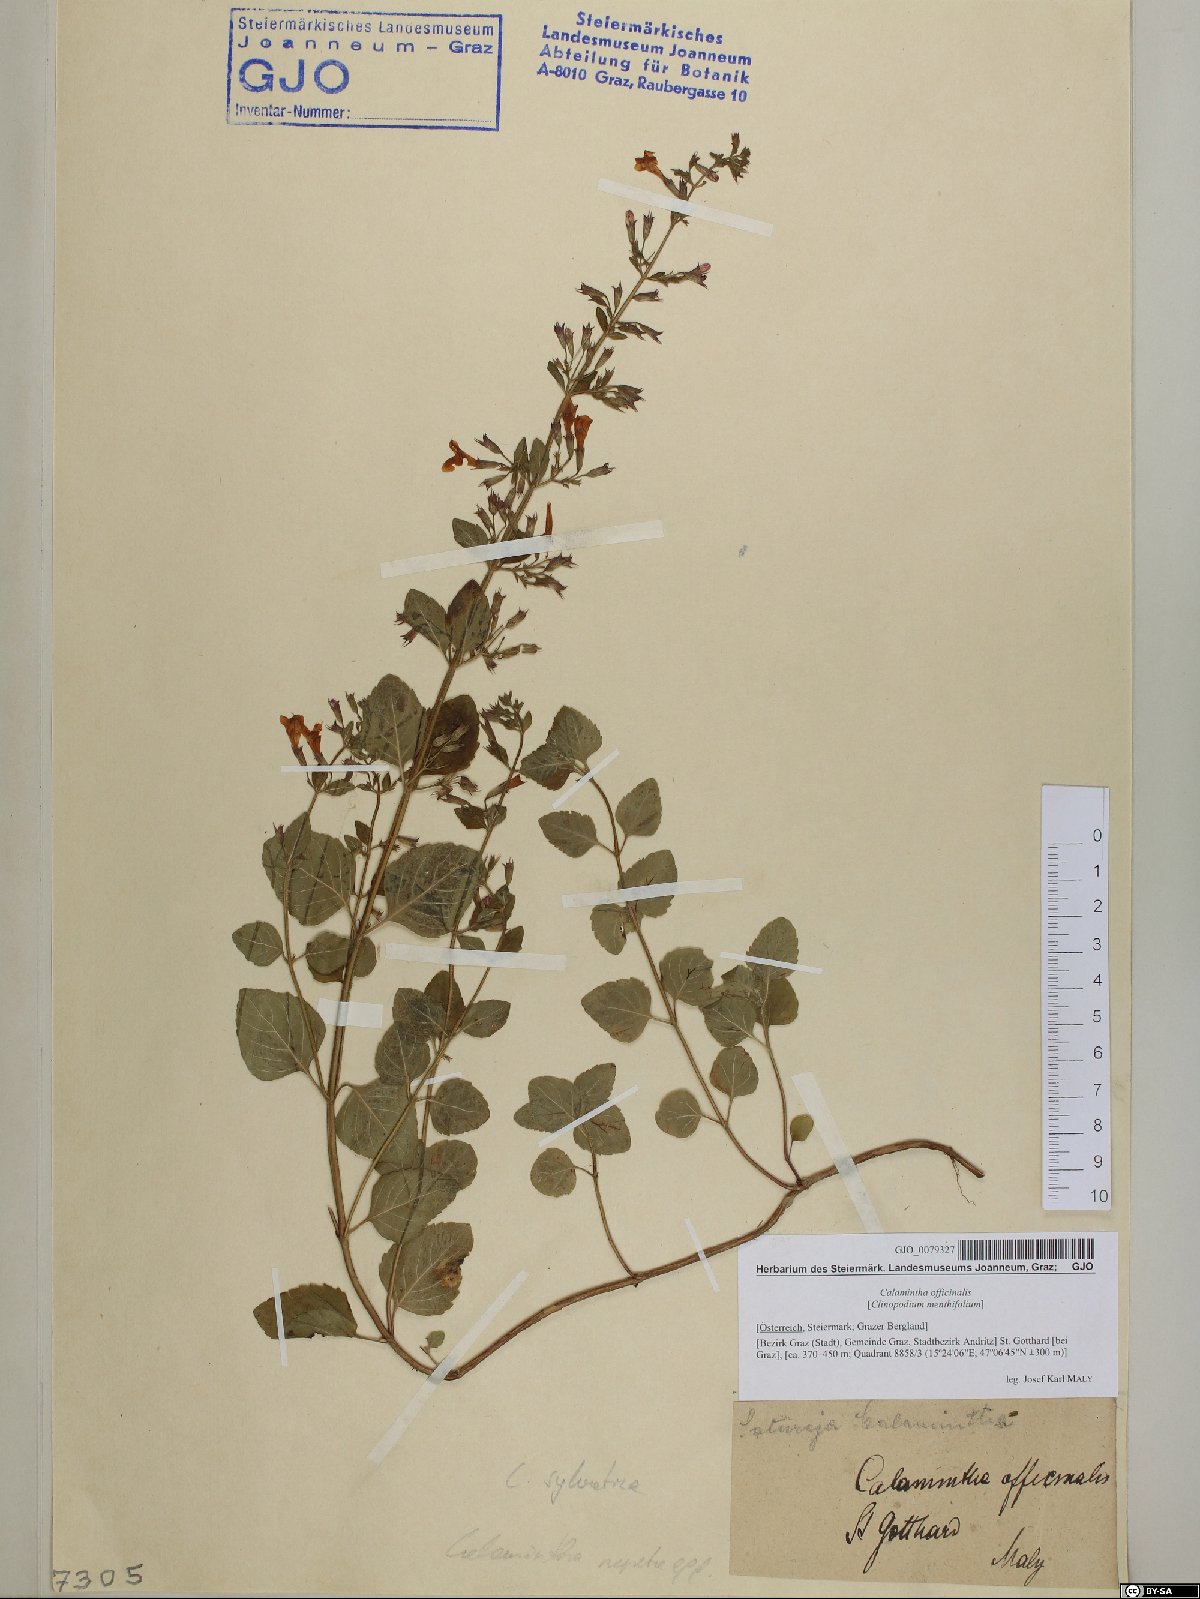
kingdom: Plantae
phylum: Tracheophyta
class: Magnoliopsida
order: Lamiales
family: Lamiaceae
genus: Clinopodium
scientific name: Clinopodium nepeta
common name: Lesser calamint
